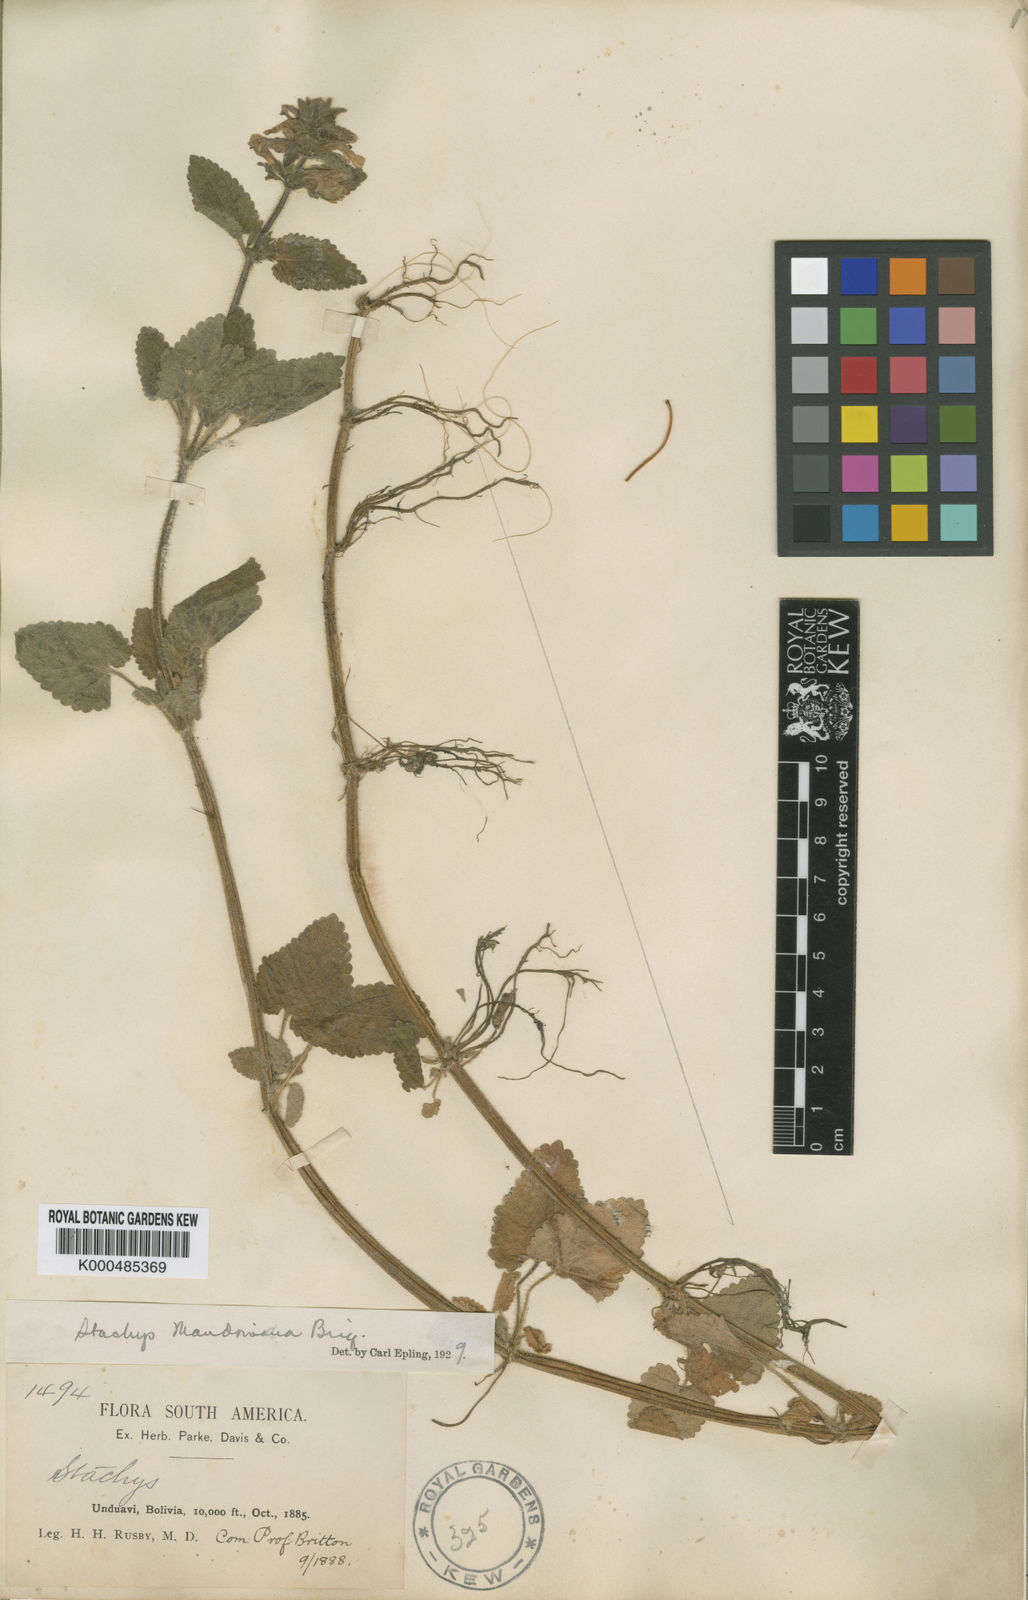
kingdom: Plantae
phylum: Tracheophyta
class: Magnoliopsida
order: Lamiales
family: Lamiaceae
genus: Stachys
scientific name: Stachys mandoniana
